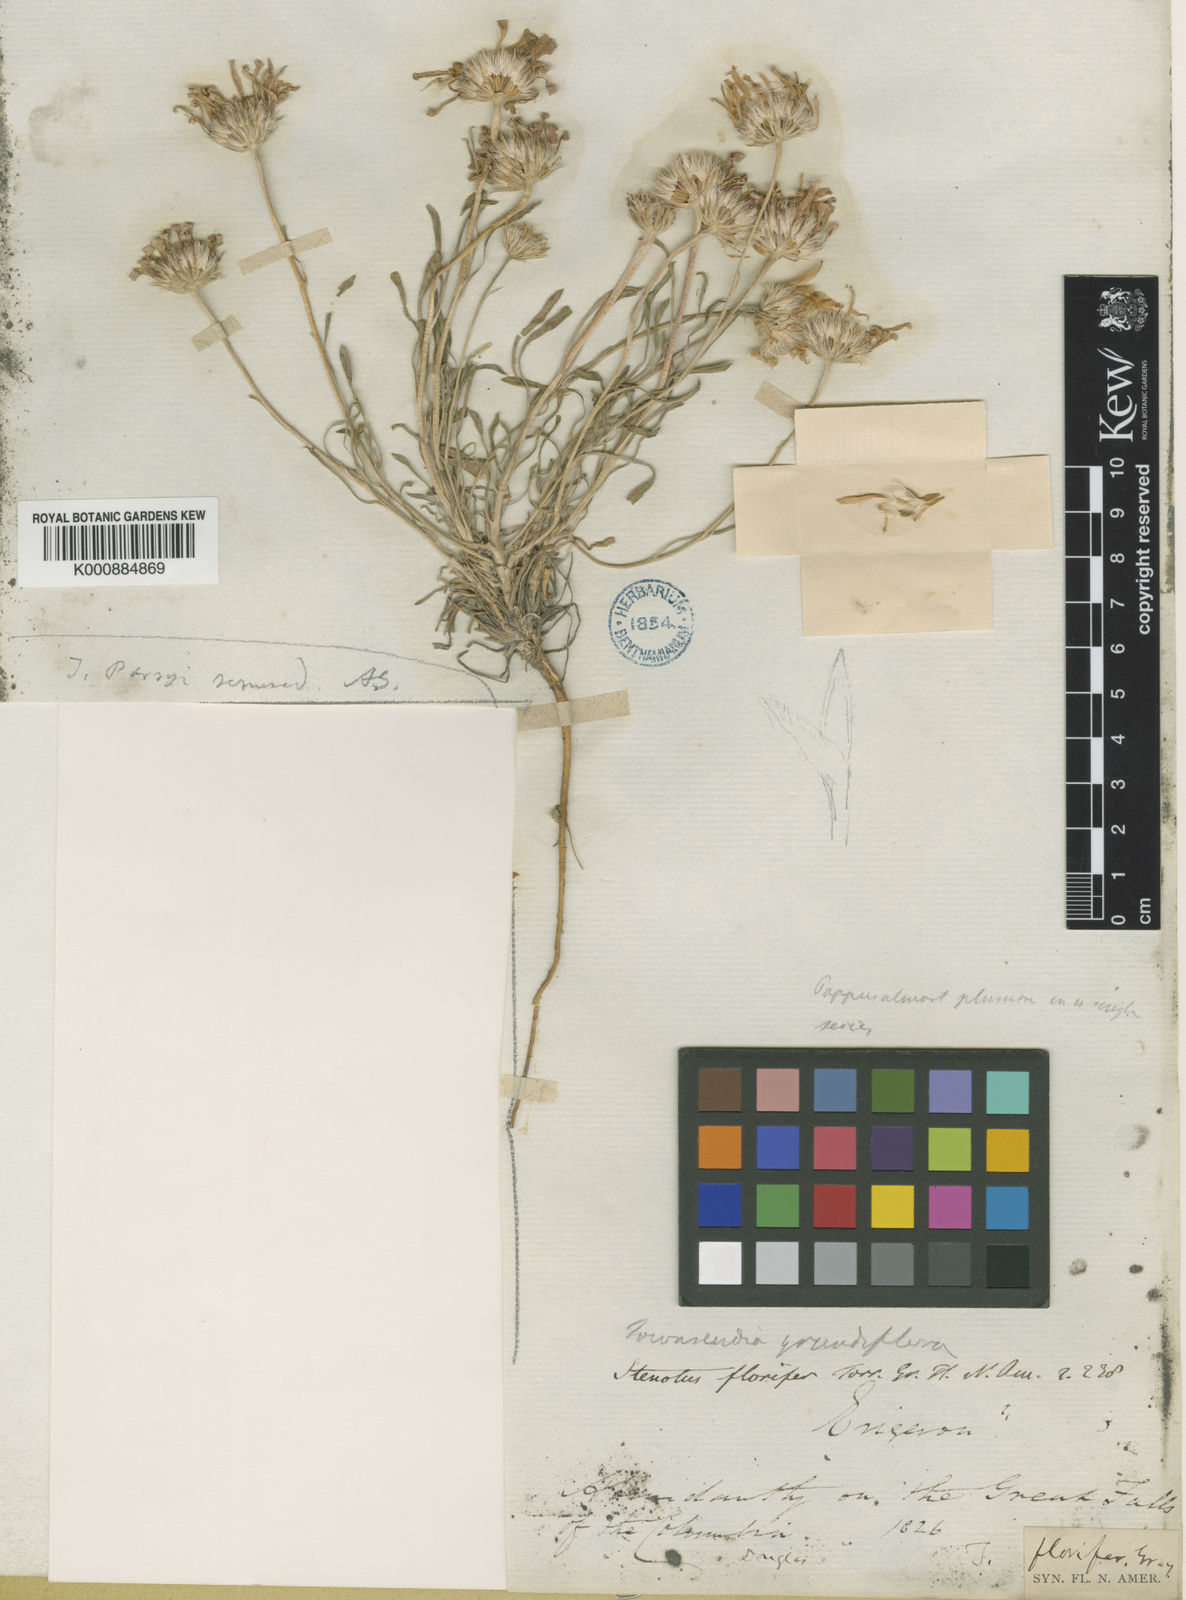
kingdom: Plantae
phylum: Tracheophyta
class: Magnoliopsida
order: Asterales
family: Asteraceae
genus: Townsendia
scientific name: Townsendia
